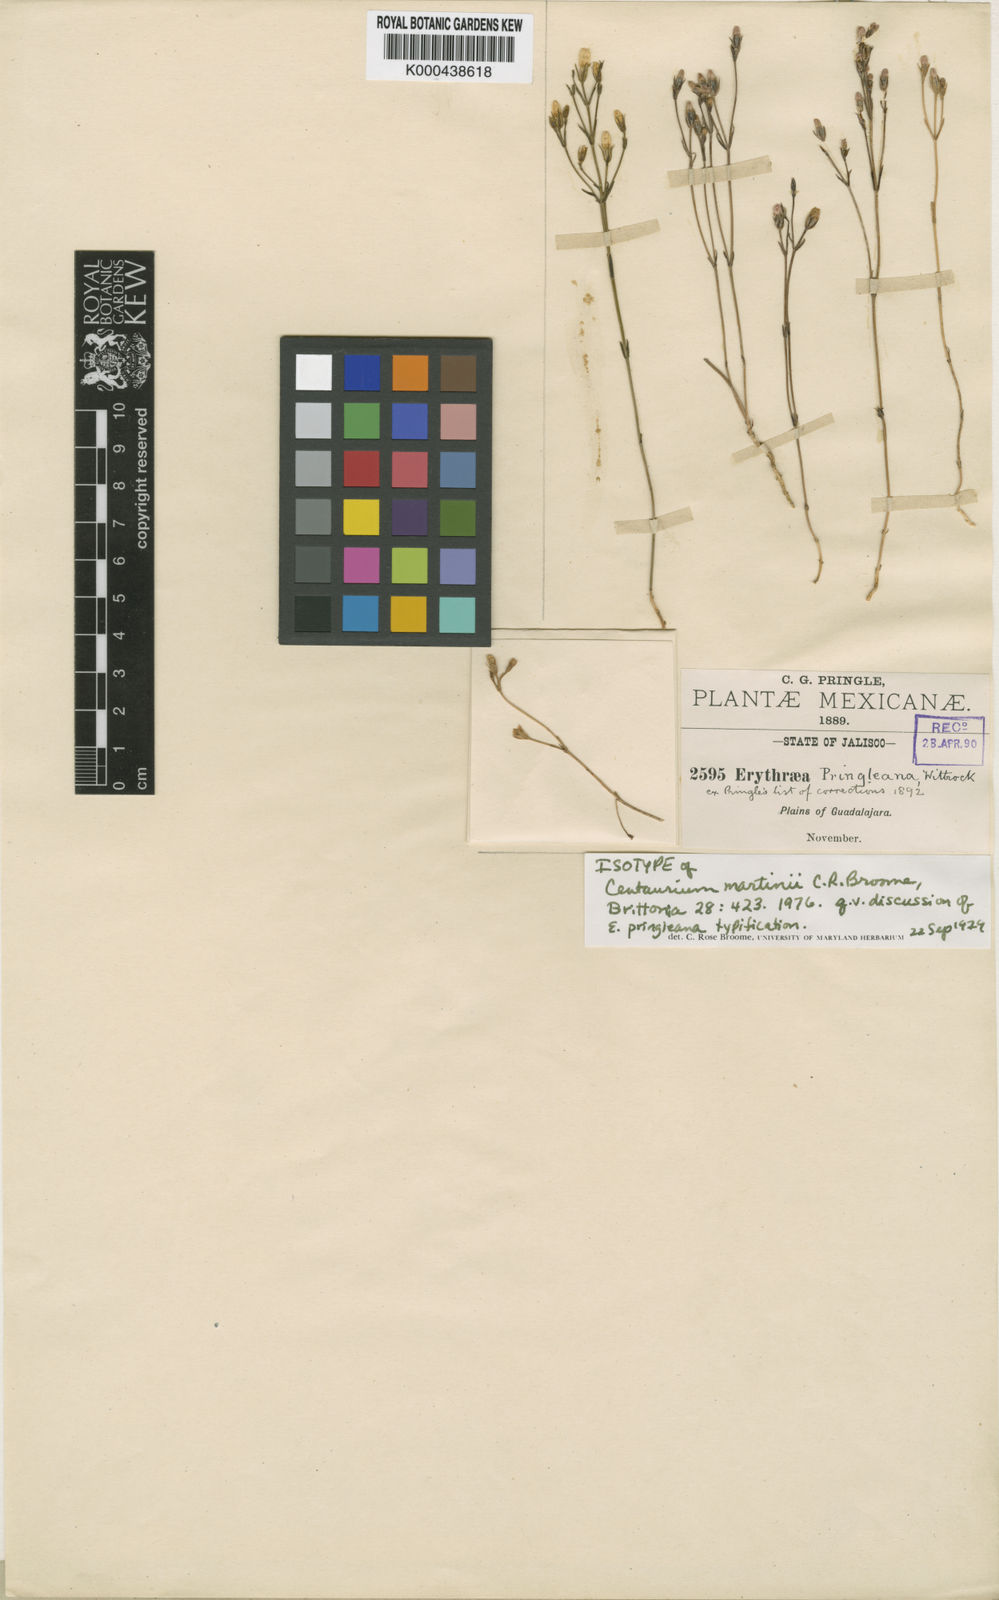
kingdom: Plantae
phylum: Tracheophyta
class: Magnoliopsida
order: Gentianales
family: Gentianaceae
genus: Zeltnera
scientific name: Zeltnera madrensis
